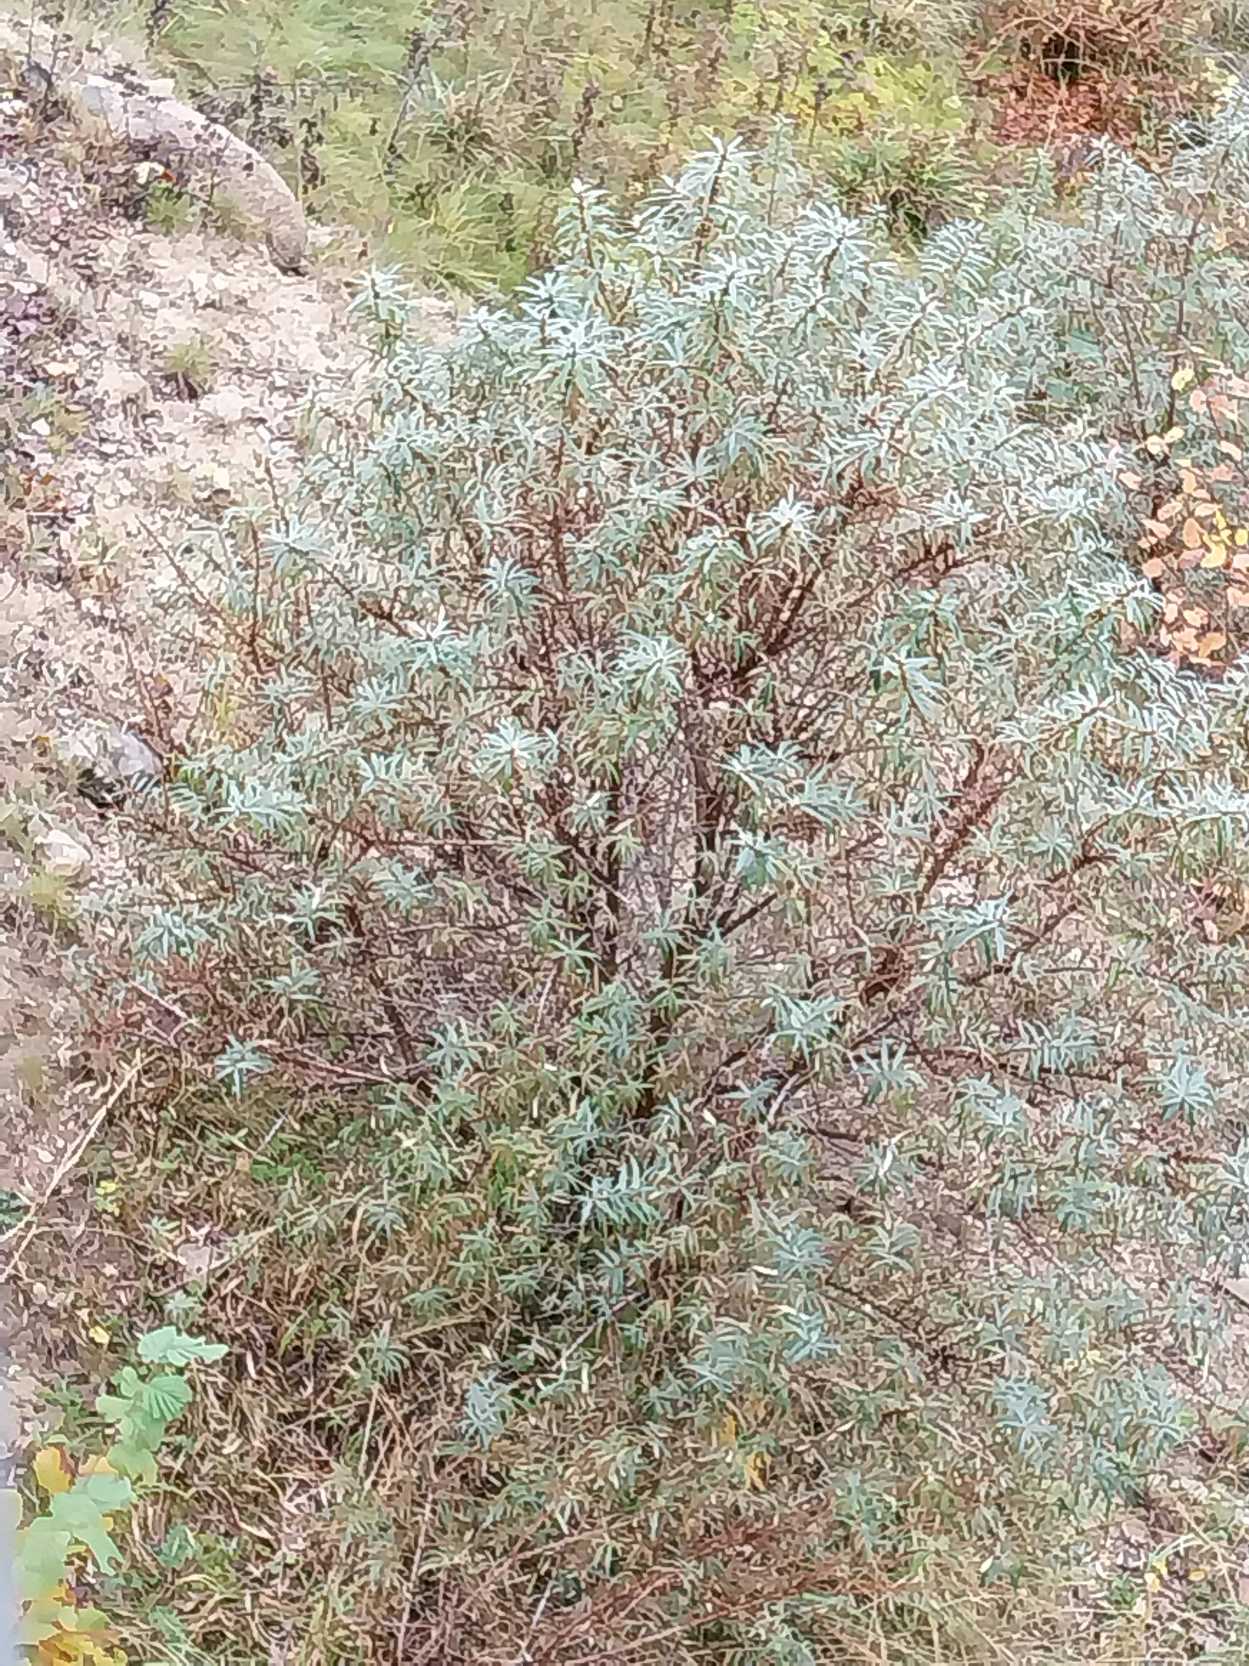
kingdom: Plantae
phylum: Tracheophyta
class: Magnoliopsida
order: Rosales
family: Elaeagnaceae
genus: Hippophae
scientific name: Hippophae rhamnoides
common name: Havtorn
